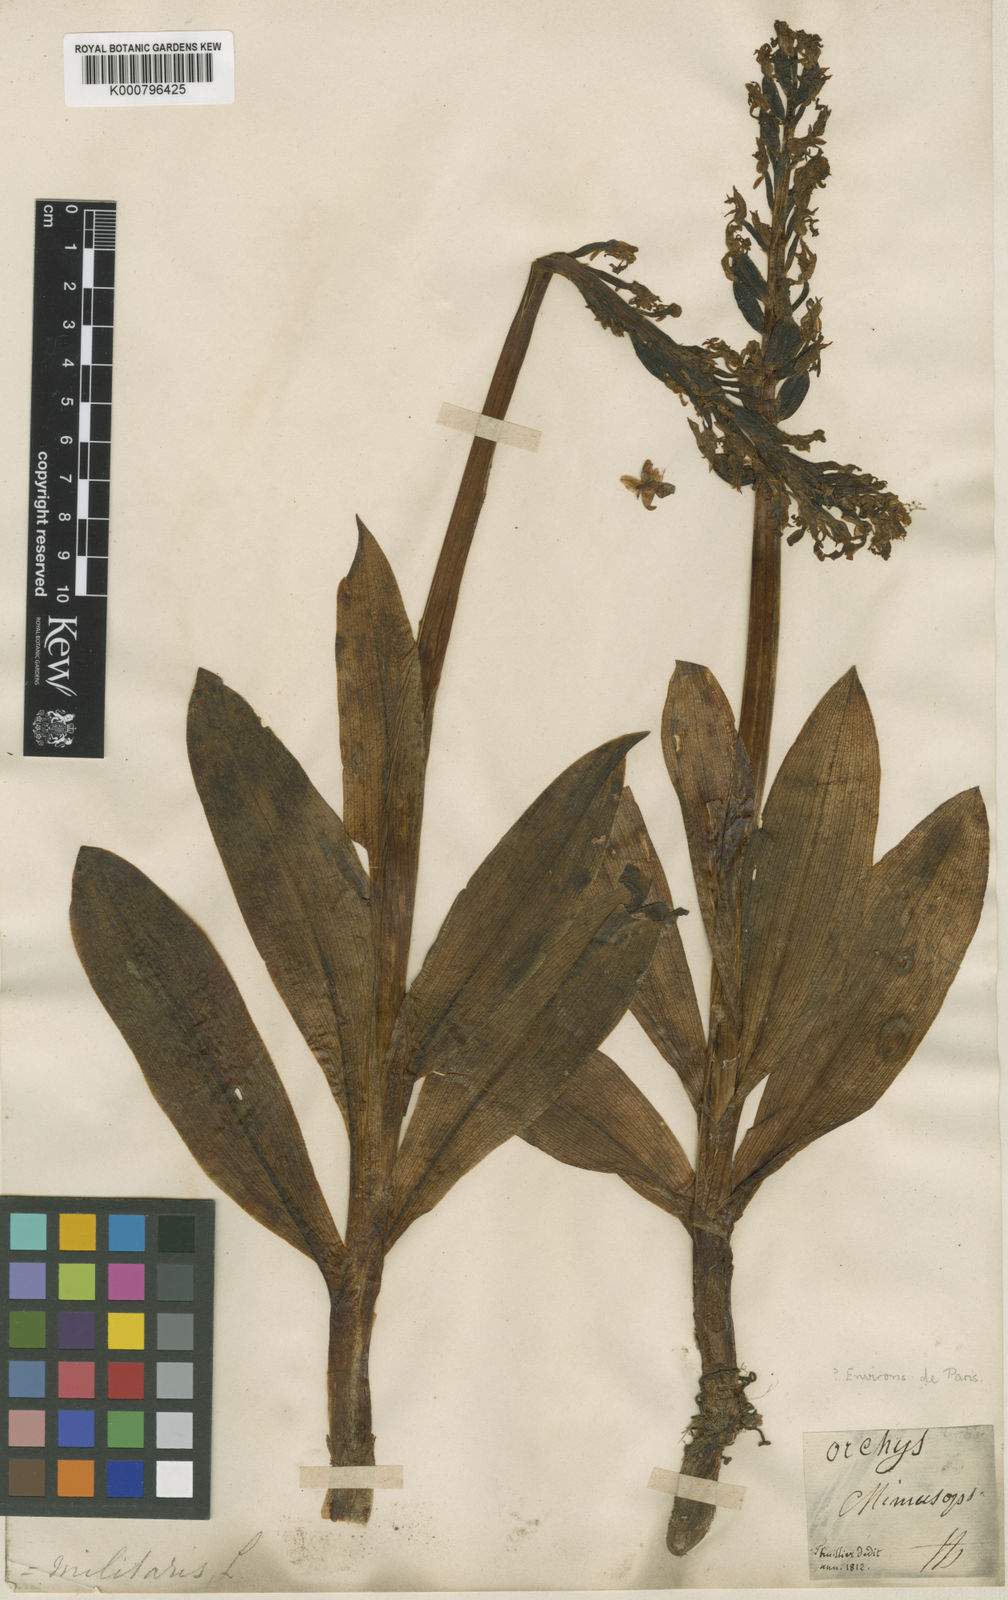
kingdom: Plantae
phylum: Tracheophyta
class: Liliopsida
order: Asparagales
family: Orchidaceae
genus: Orchis
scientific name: Orchis militaris
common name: Military orchid
